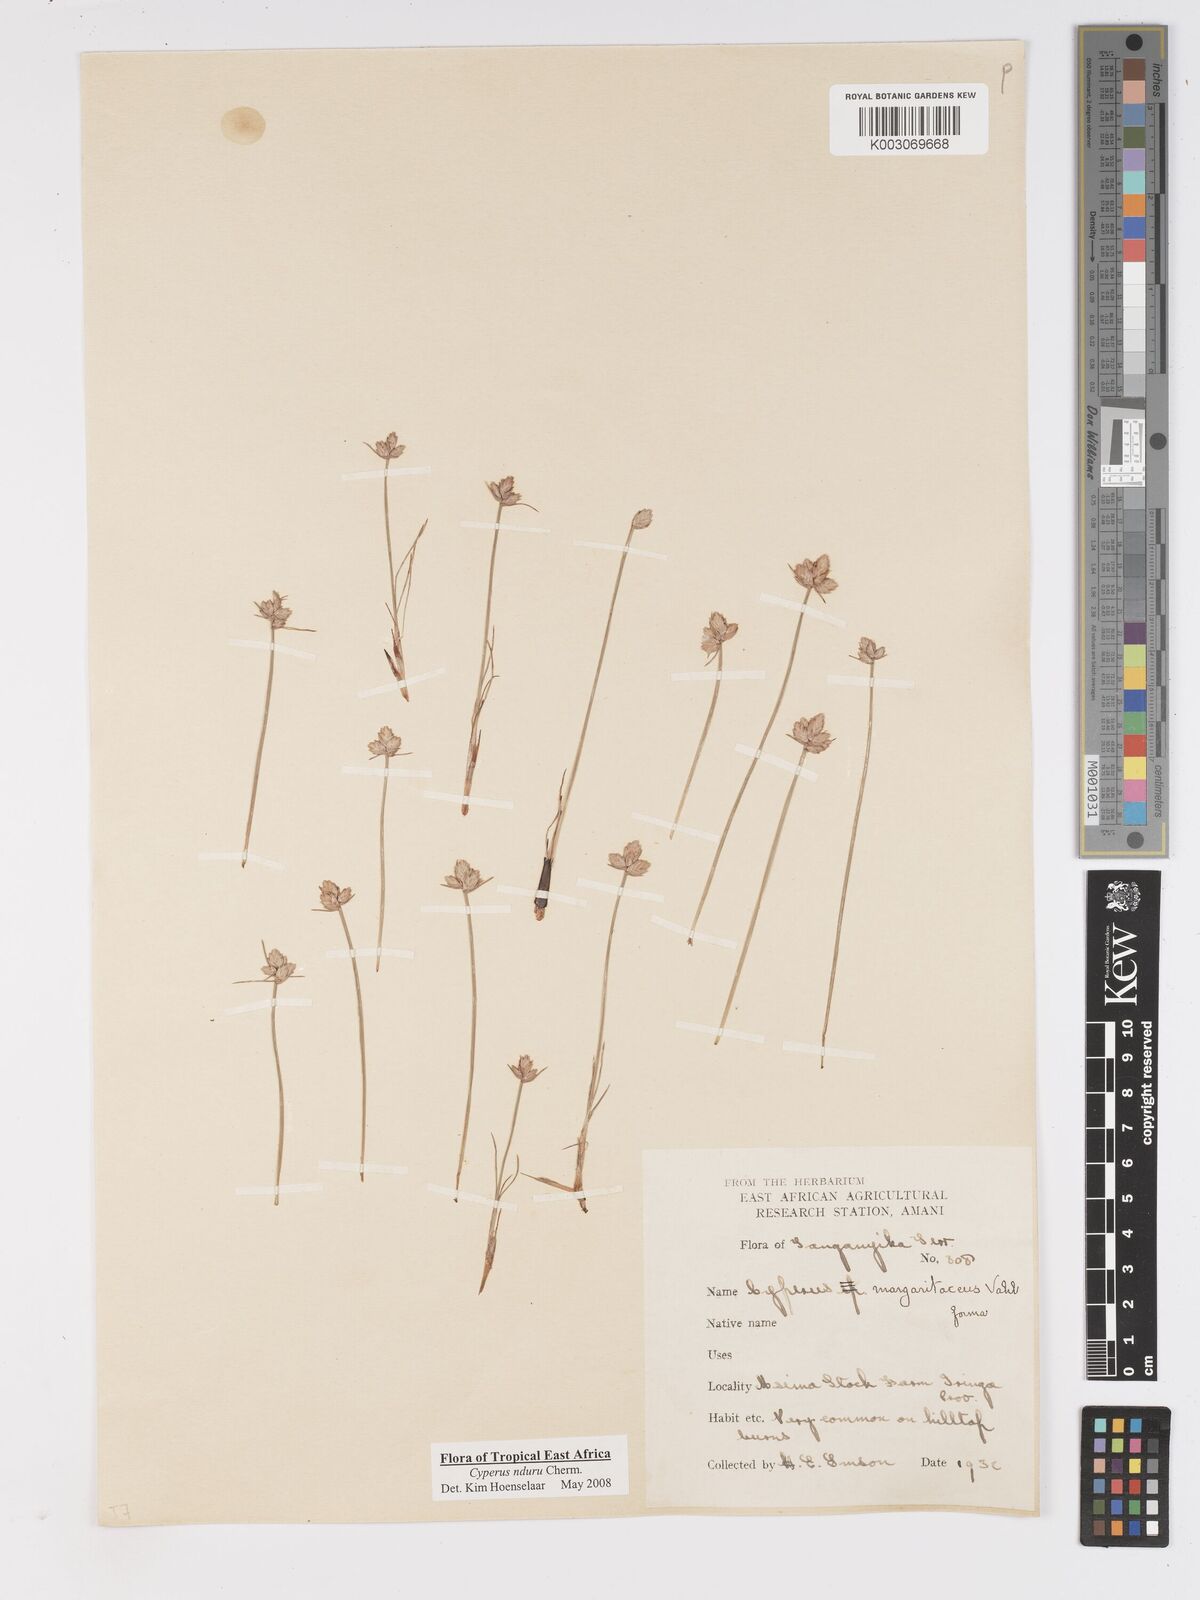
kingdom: Plantae
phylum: Tracheophyta
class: Liliopsida
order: Poales
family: Cyperaceae
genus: Cyperus
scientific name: Cyperus nduru
